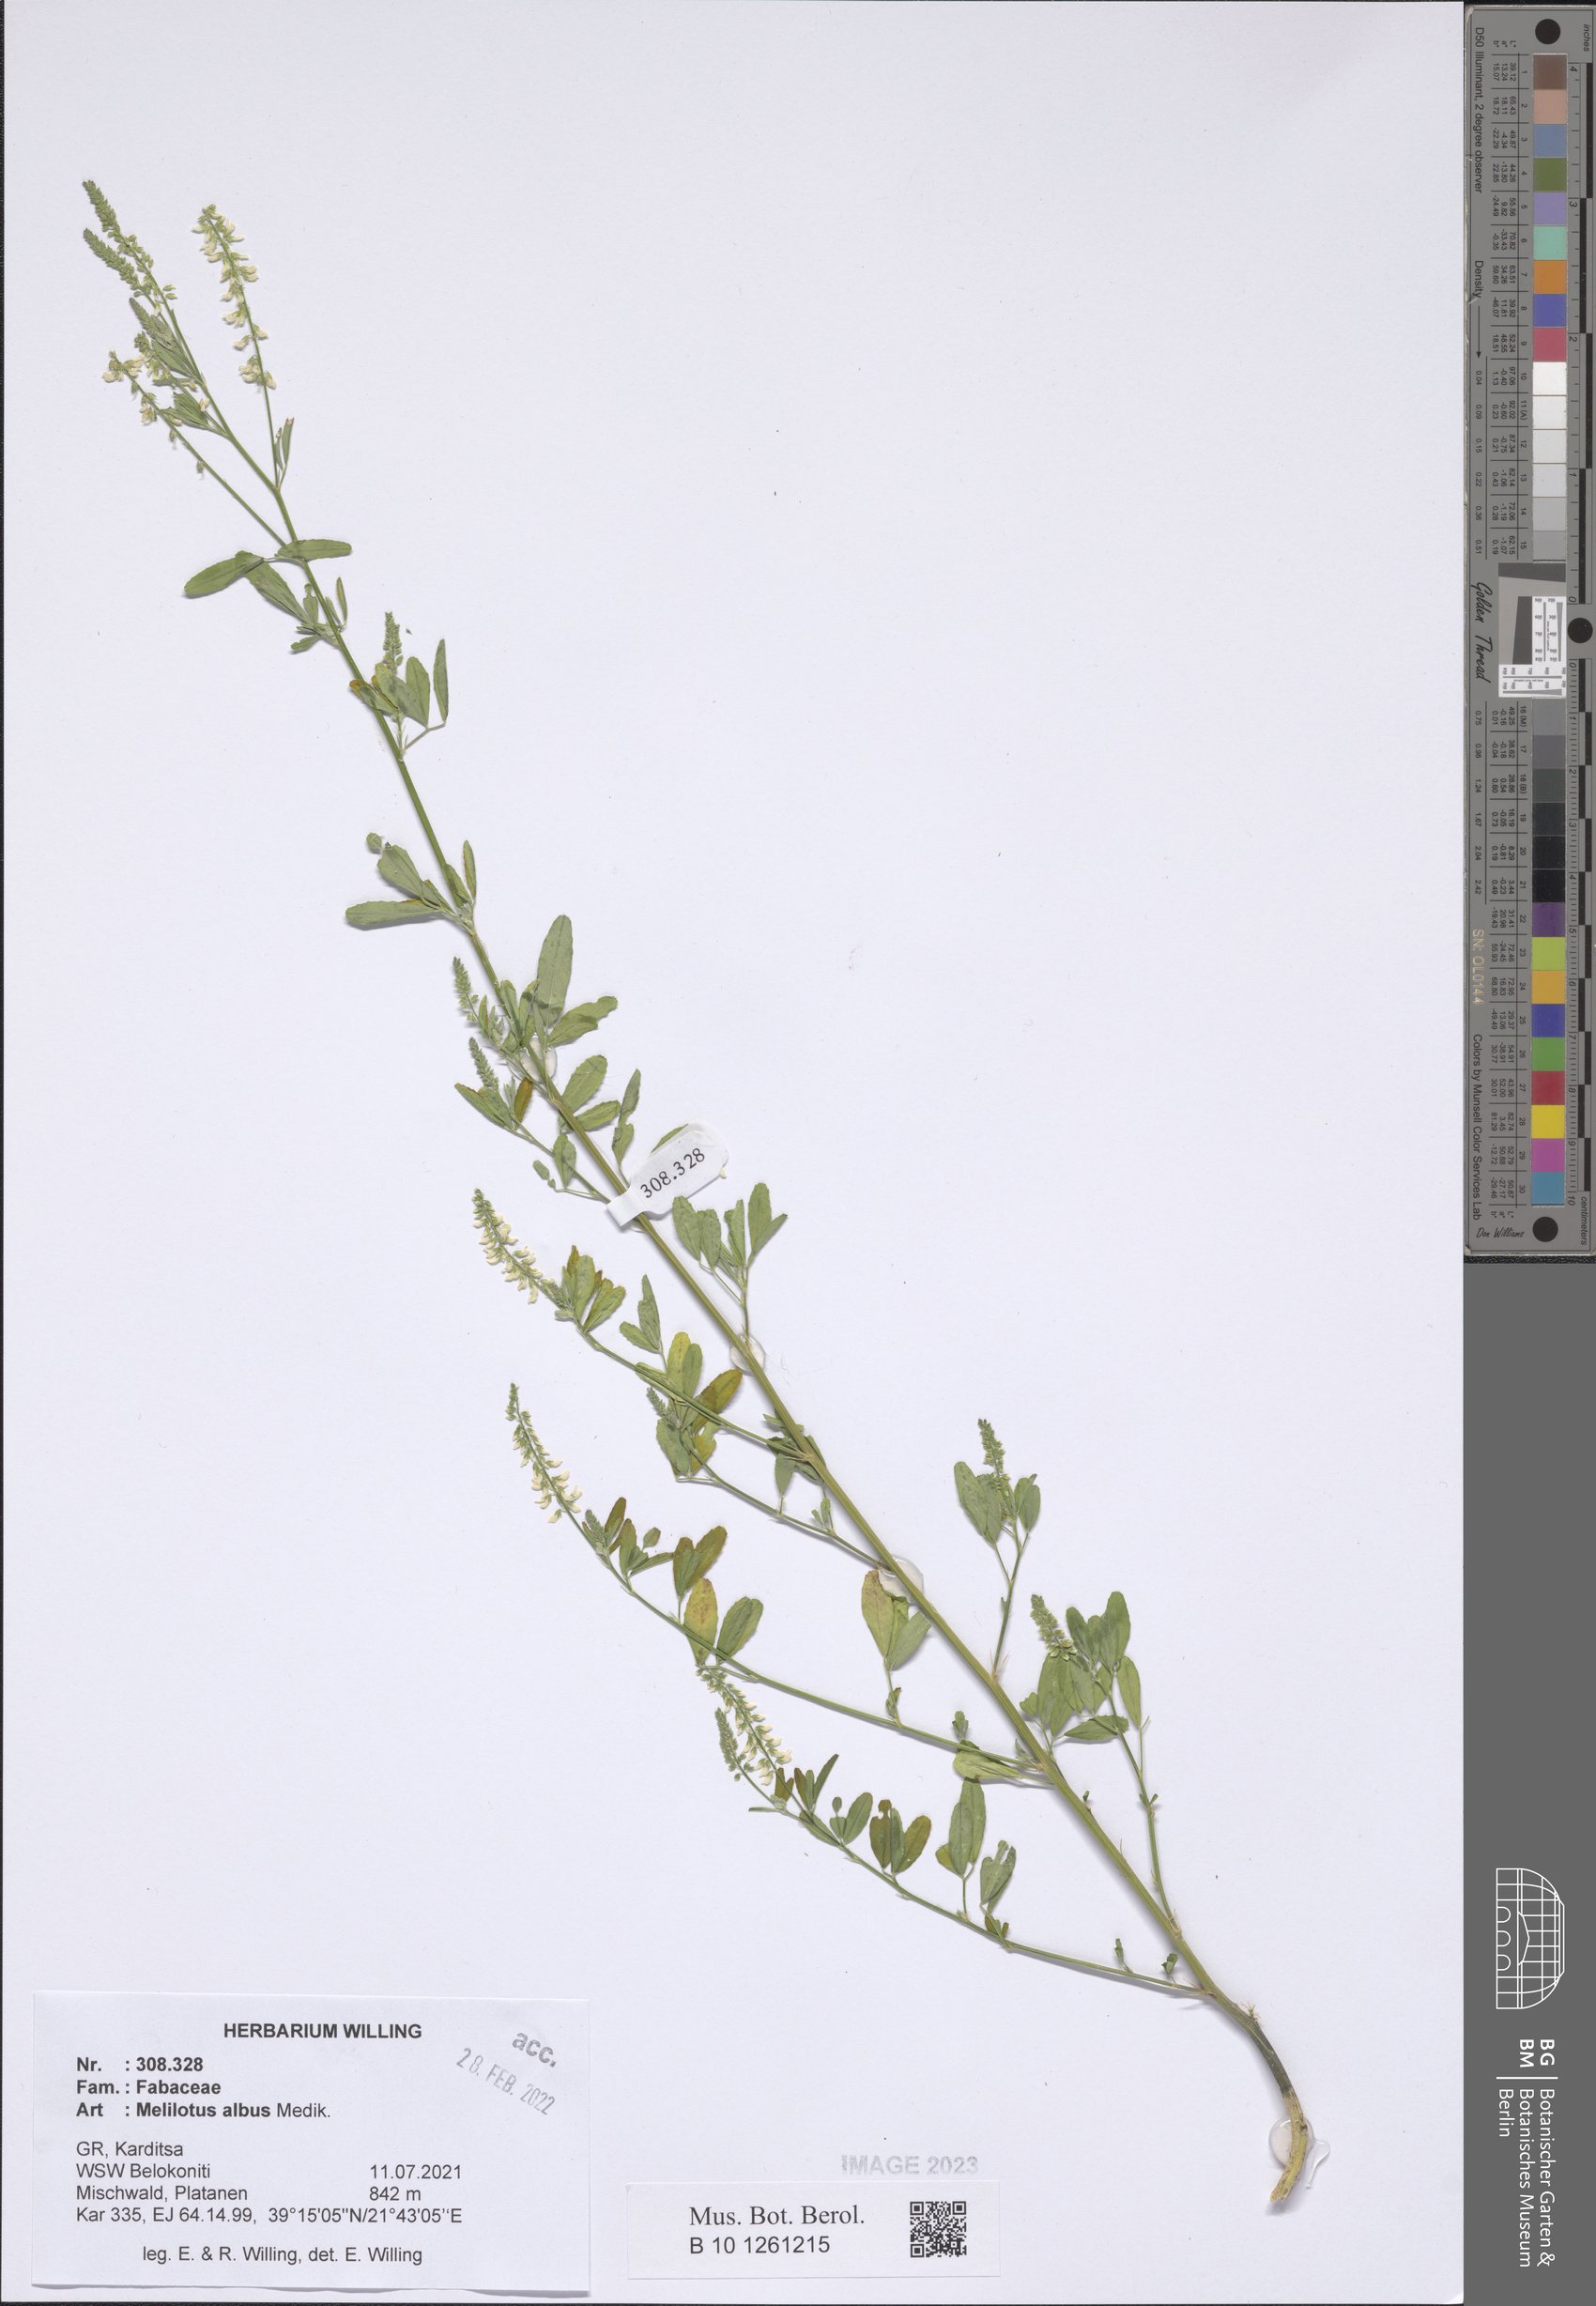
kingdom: Plantae
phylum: Tracheophyta
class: Magnoliopsida
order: Fabales
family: Fabaceae
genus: Melilotus
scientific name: Melilotus albus
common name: White melilot
